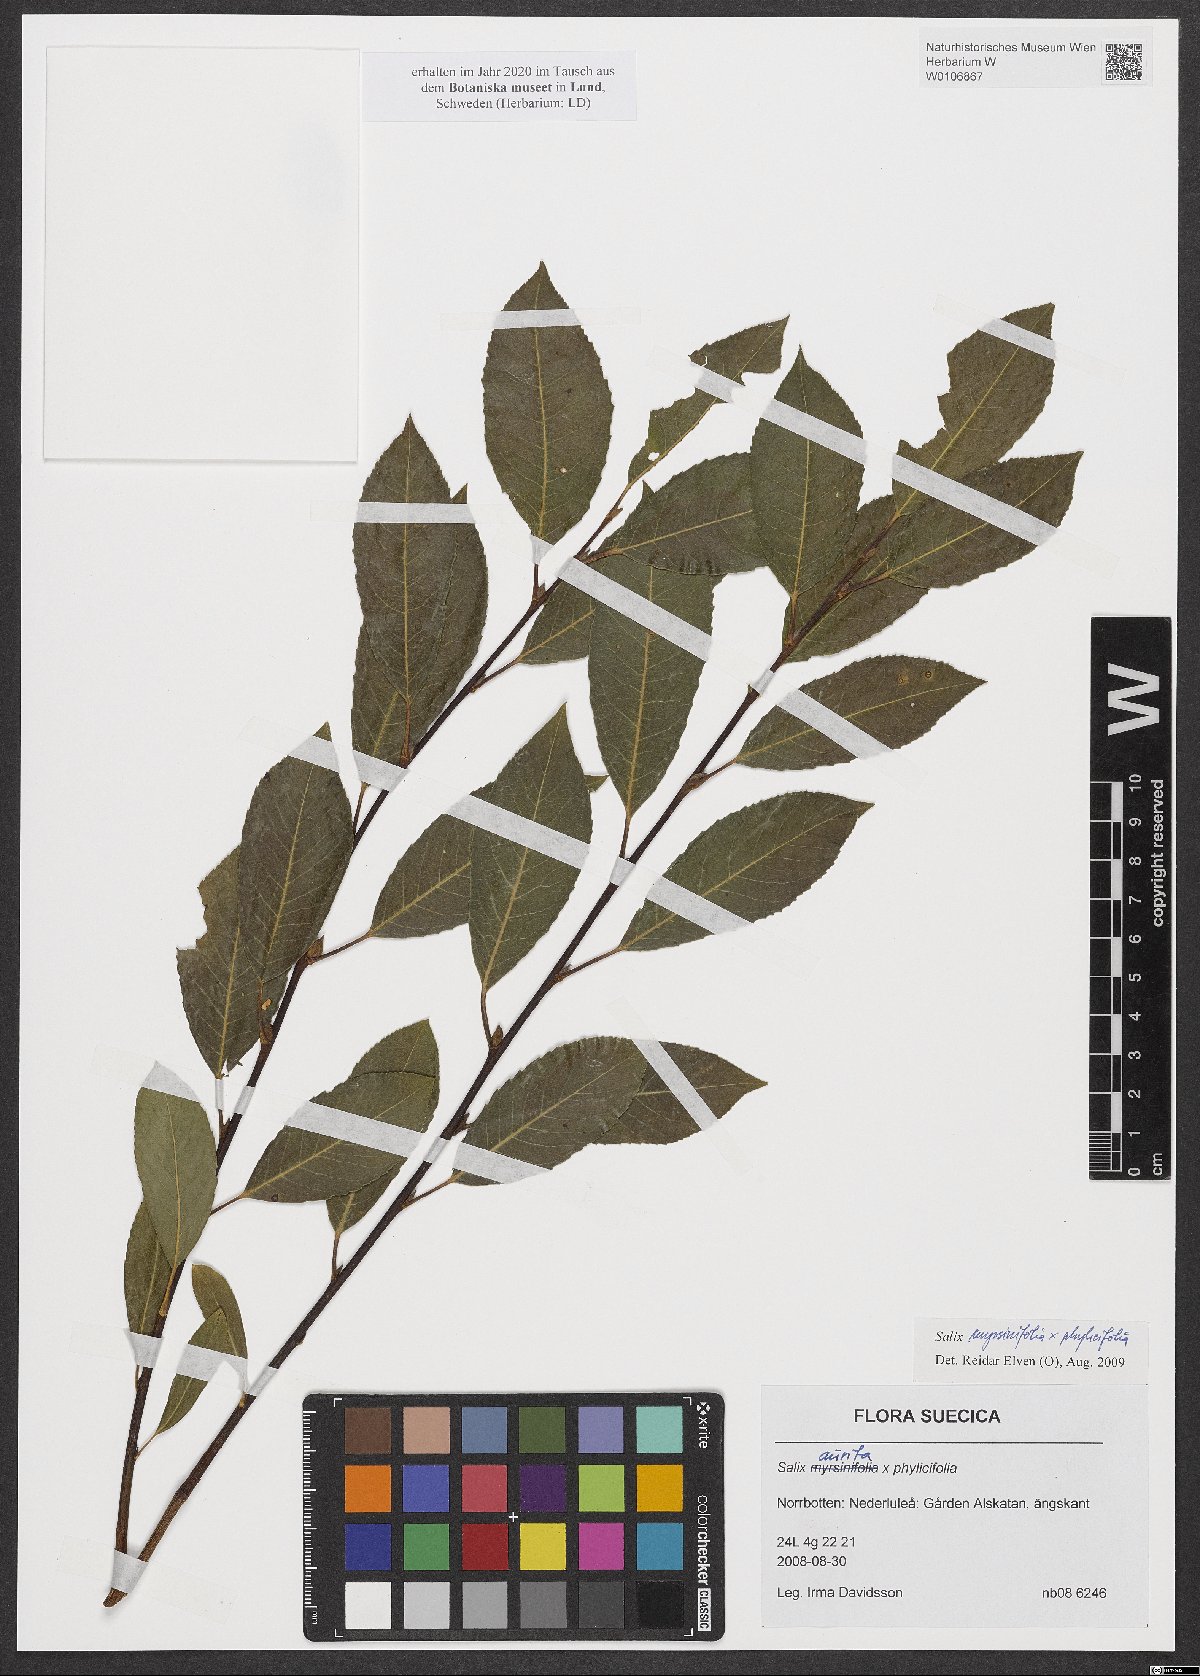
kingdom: Plantae
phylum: Tracheophyta
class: Magnoliopsida
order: Malpighiales
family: Salicaceae
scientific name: Salicaceae
